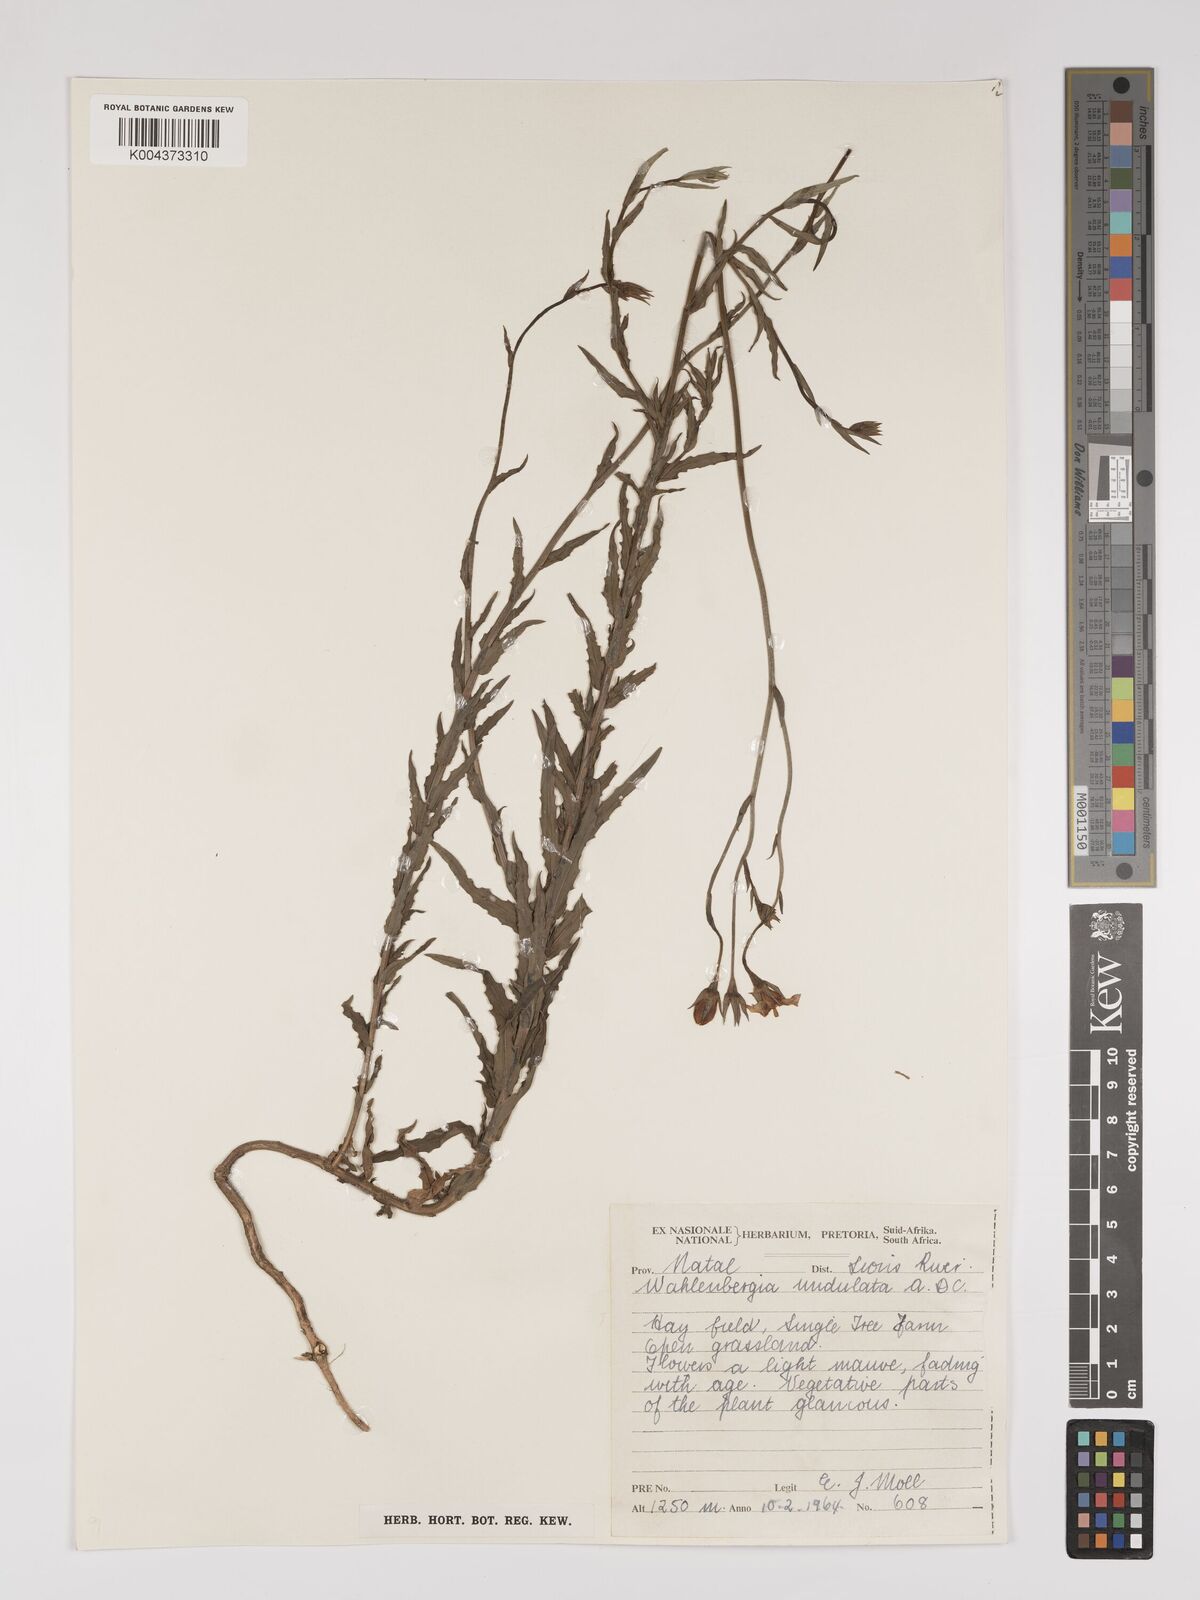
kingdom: Plantae
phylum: Tracheophyta
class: Magnoliopsida
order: Asterales
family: Campanulaceae
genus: Wahlenbergia
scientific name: Wahlenbergia undulata
